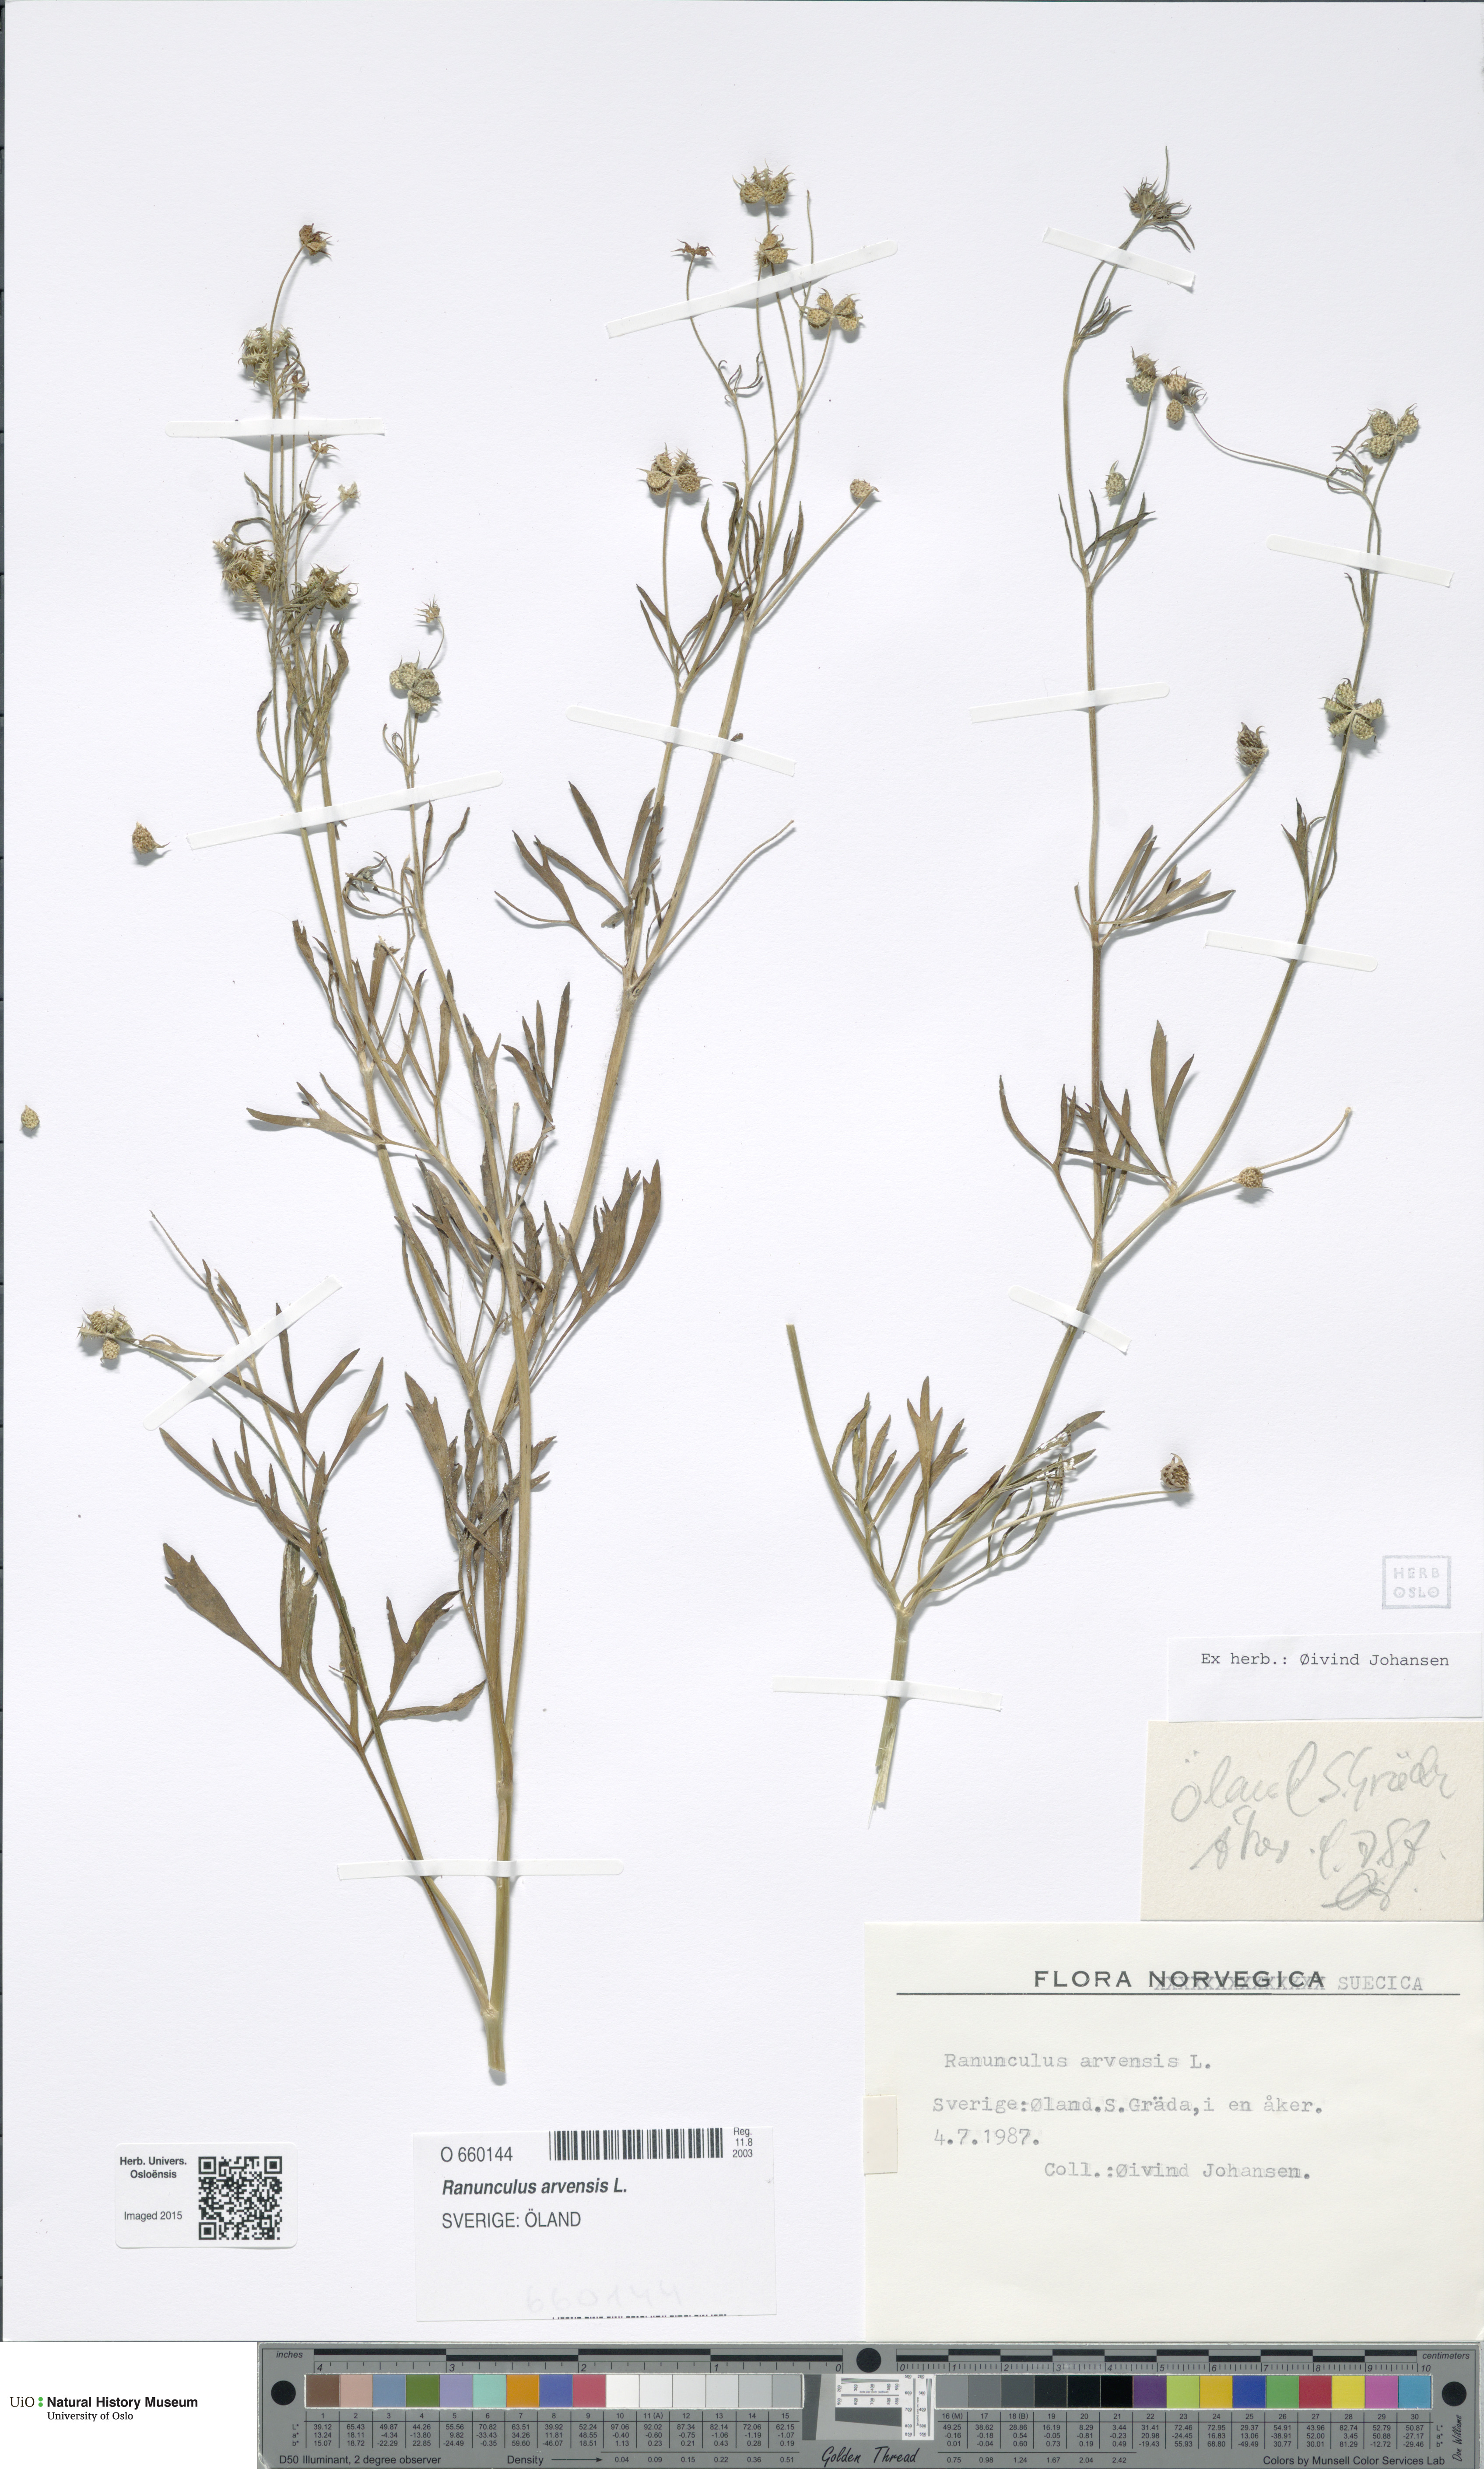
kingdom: Plantae
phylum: Tracheophyta
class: Magnoliopsida
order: Ranunculales
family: Ranunculaceae
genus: Ranunculus
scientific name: Ranunculus arvensis
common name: Corn buttercup
